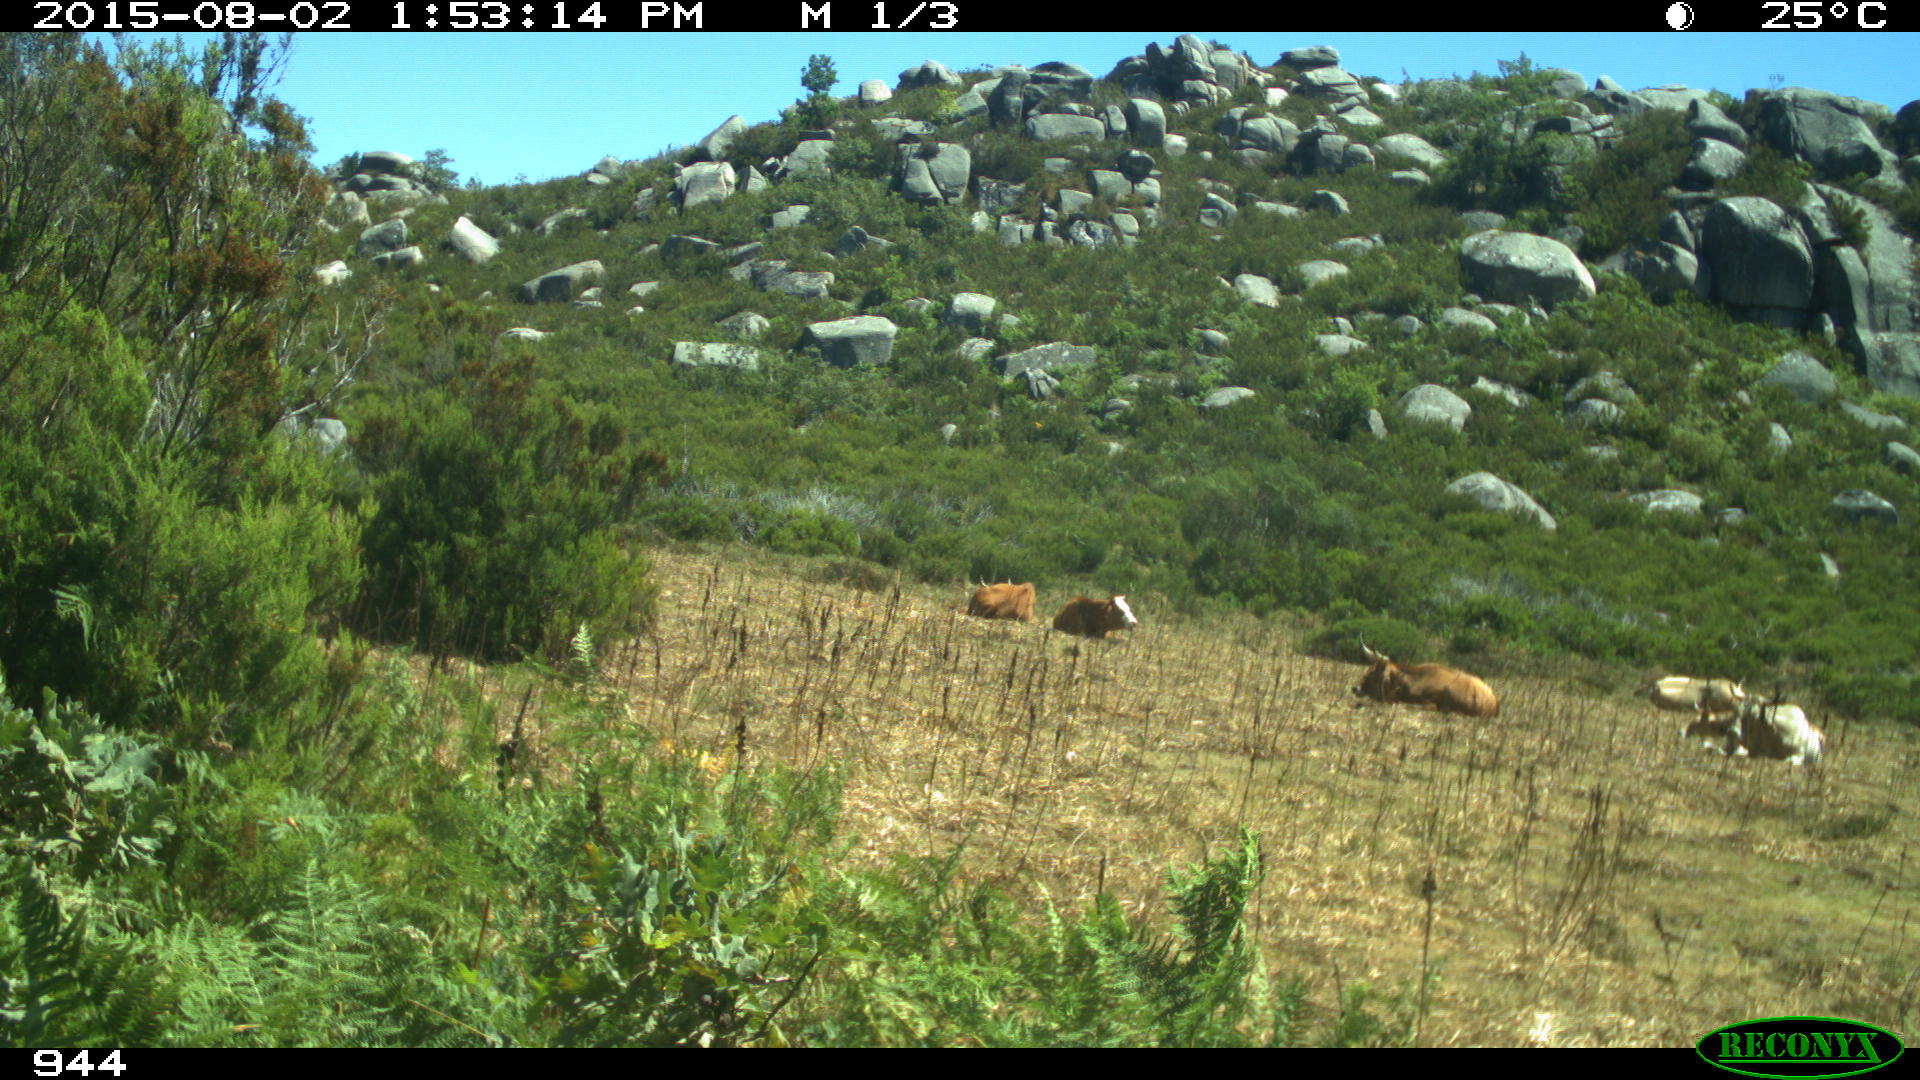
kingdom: Animalia
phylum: Chordata
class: Mammalia
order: Artiodactyla
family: Bovidae
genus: Bos
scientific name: Bos taurus
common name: Domesticated cattle
